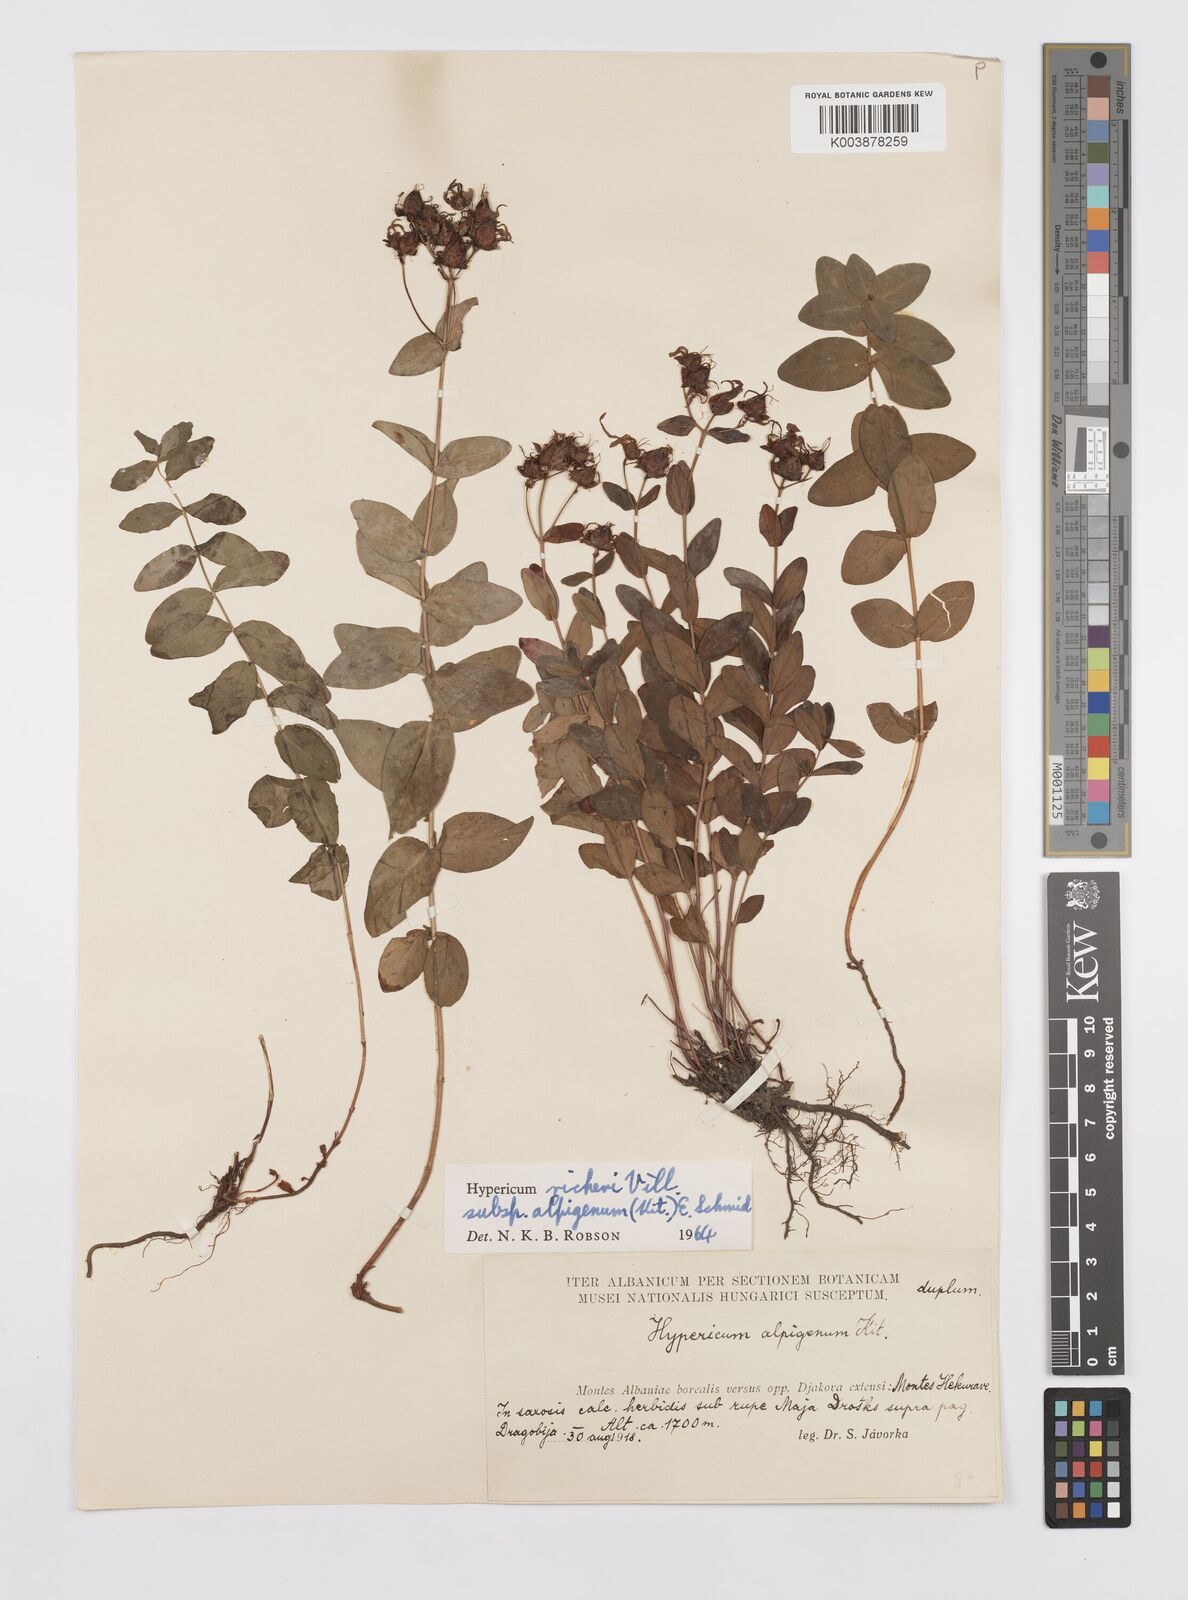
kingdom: Plantae
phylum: Tracheophyta
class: Magnoliopsida
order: Malpighiales
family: Hypericaceae
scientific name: Hypericaceae
